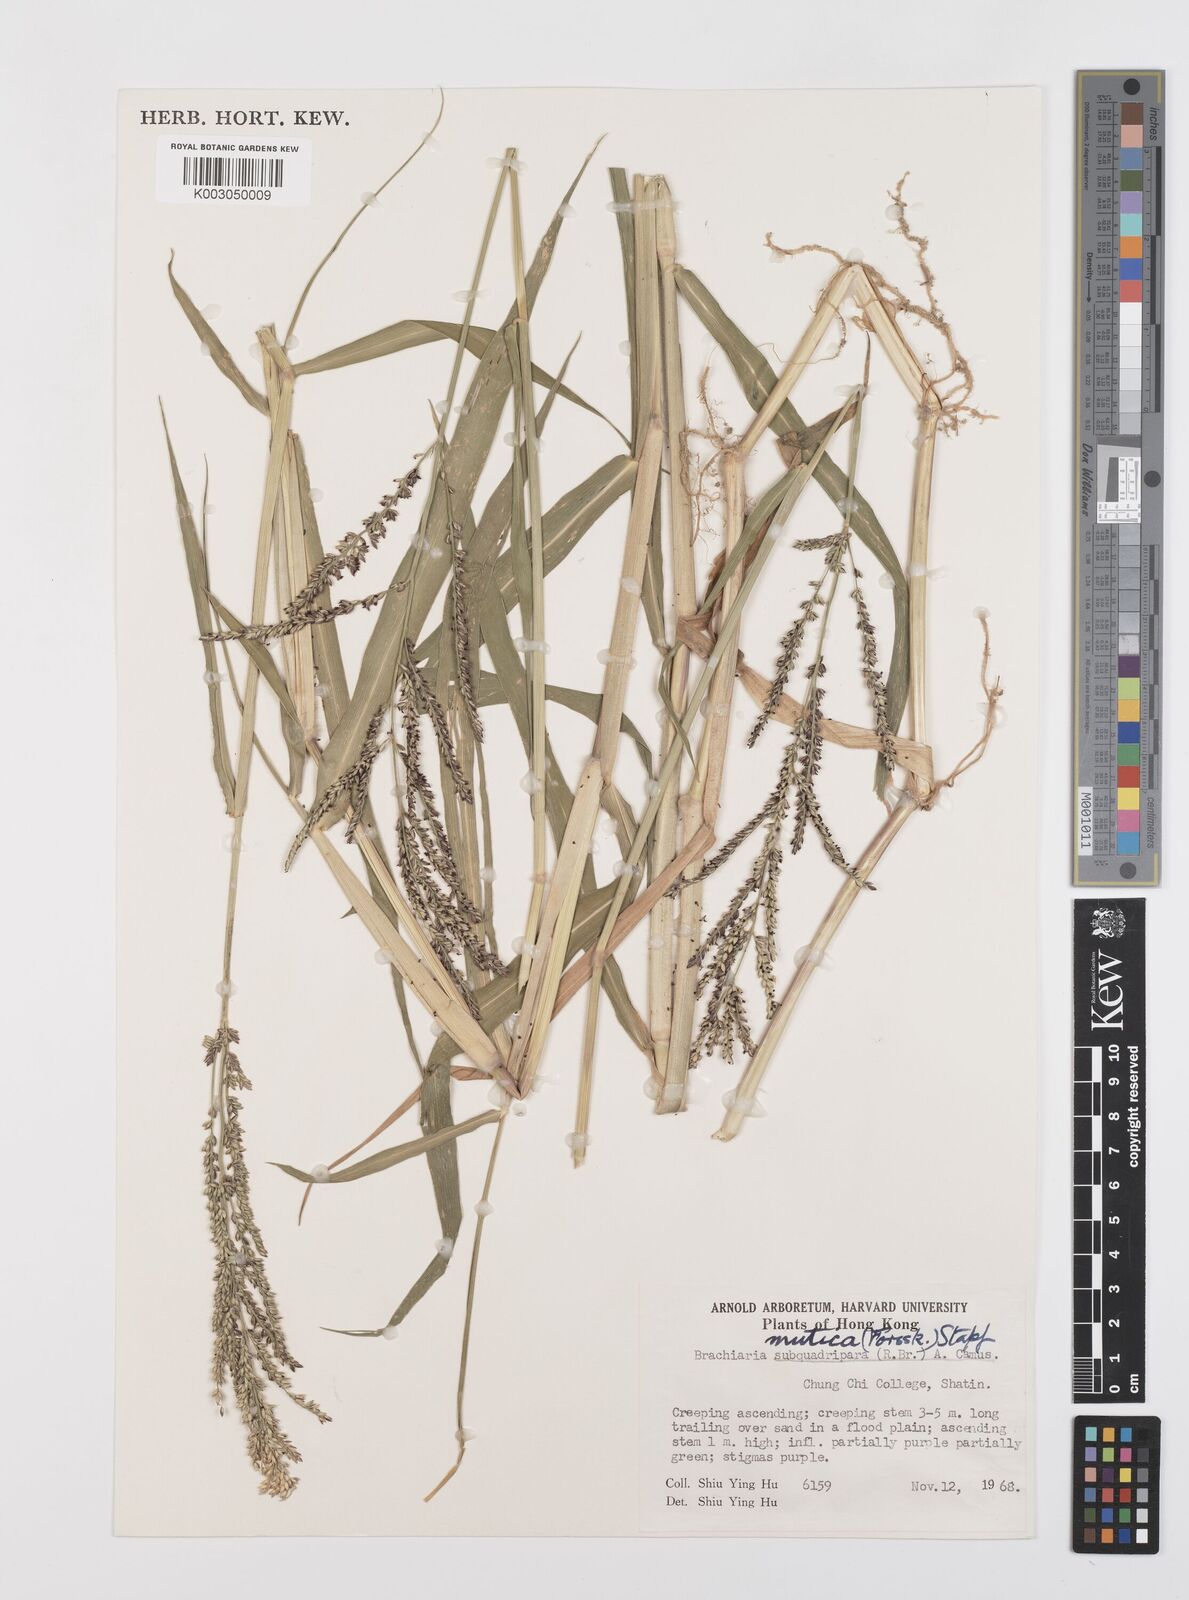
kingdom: Plantae
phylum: Tracheophyta
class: Liliopsida
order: Poales
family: Poaceae
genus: Urochloa
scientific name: Urochloa mutica
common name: Para grass
